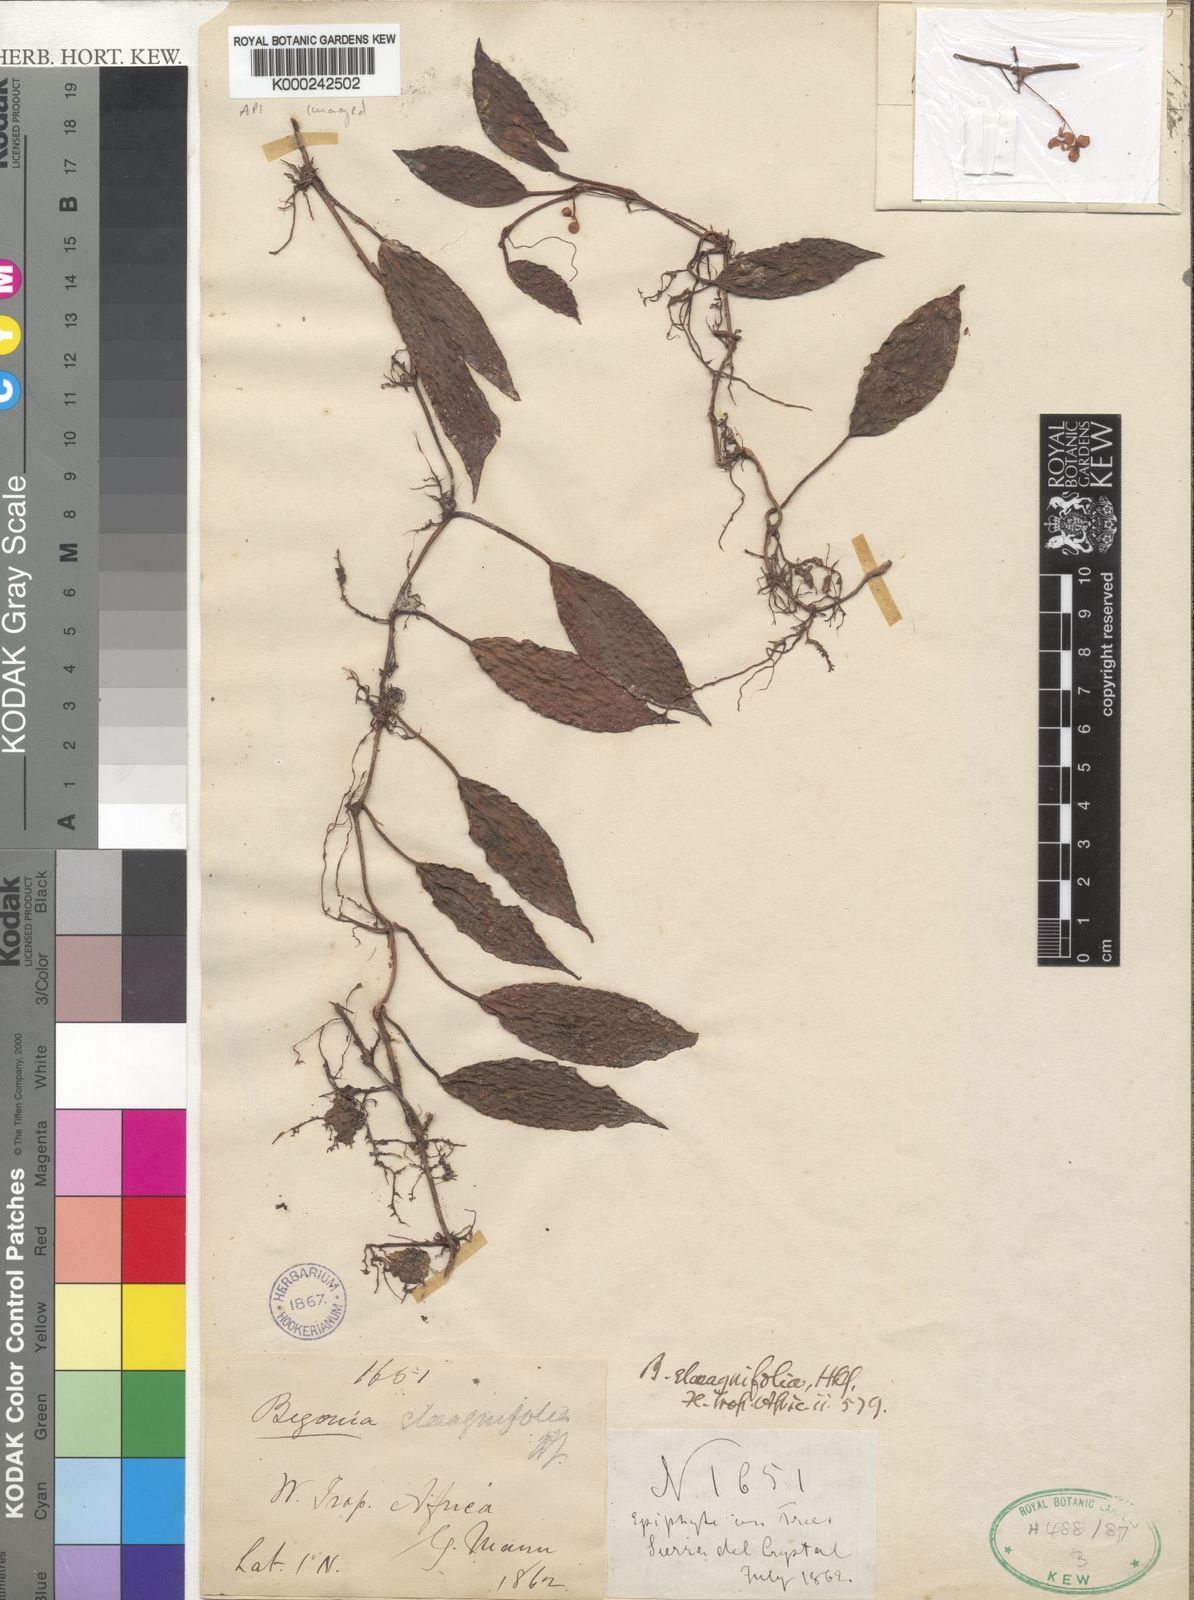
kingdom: Plantae
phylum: Tracheophyta
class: Magnoliopsida
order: Cucurbitales
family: Begoniaceae
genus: Begonia
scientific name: Begonia elaeagnifolia
